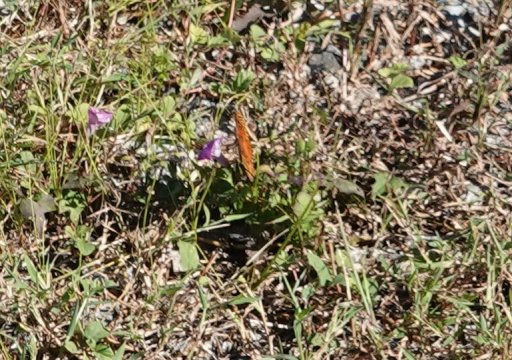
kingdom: Animalia
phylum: Arthropoda
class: Insecta
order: Lepidoptera
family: Nymphalidae
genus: Dione
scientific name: Dione vanillae
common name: Gulf Fritillary
